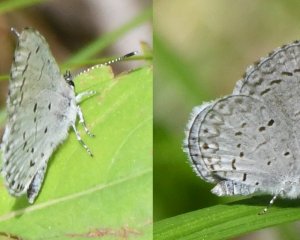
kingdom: Animalia
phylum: Arthropoda
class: Insecta
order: Lepidoptera
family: Lycaenidae
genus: Celastrina
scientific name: Celastrina
